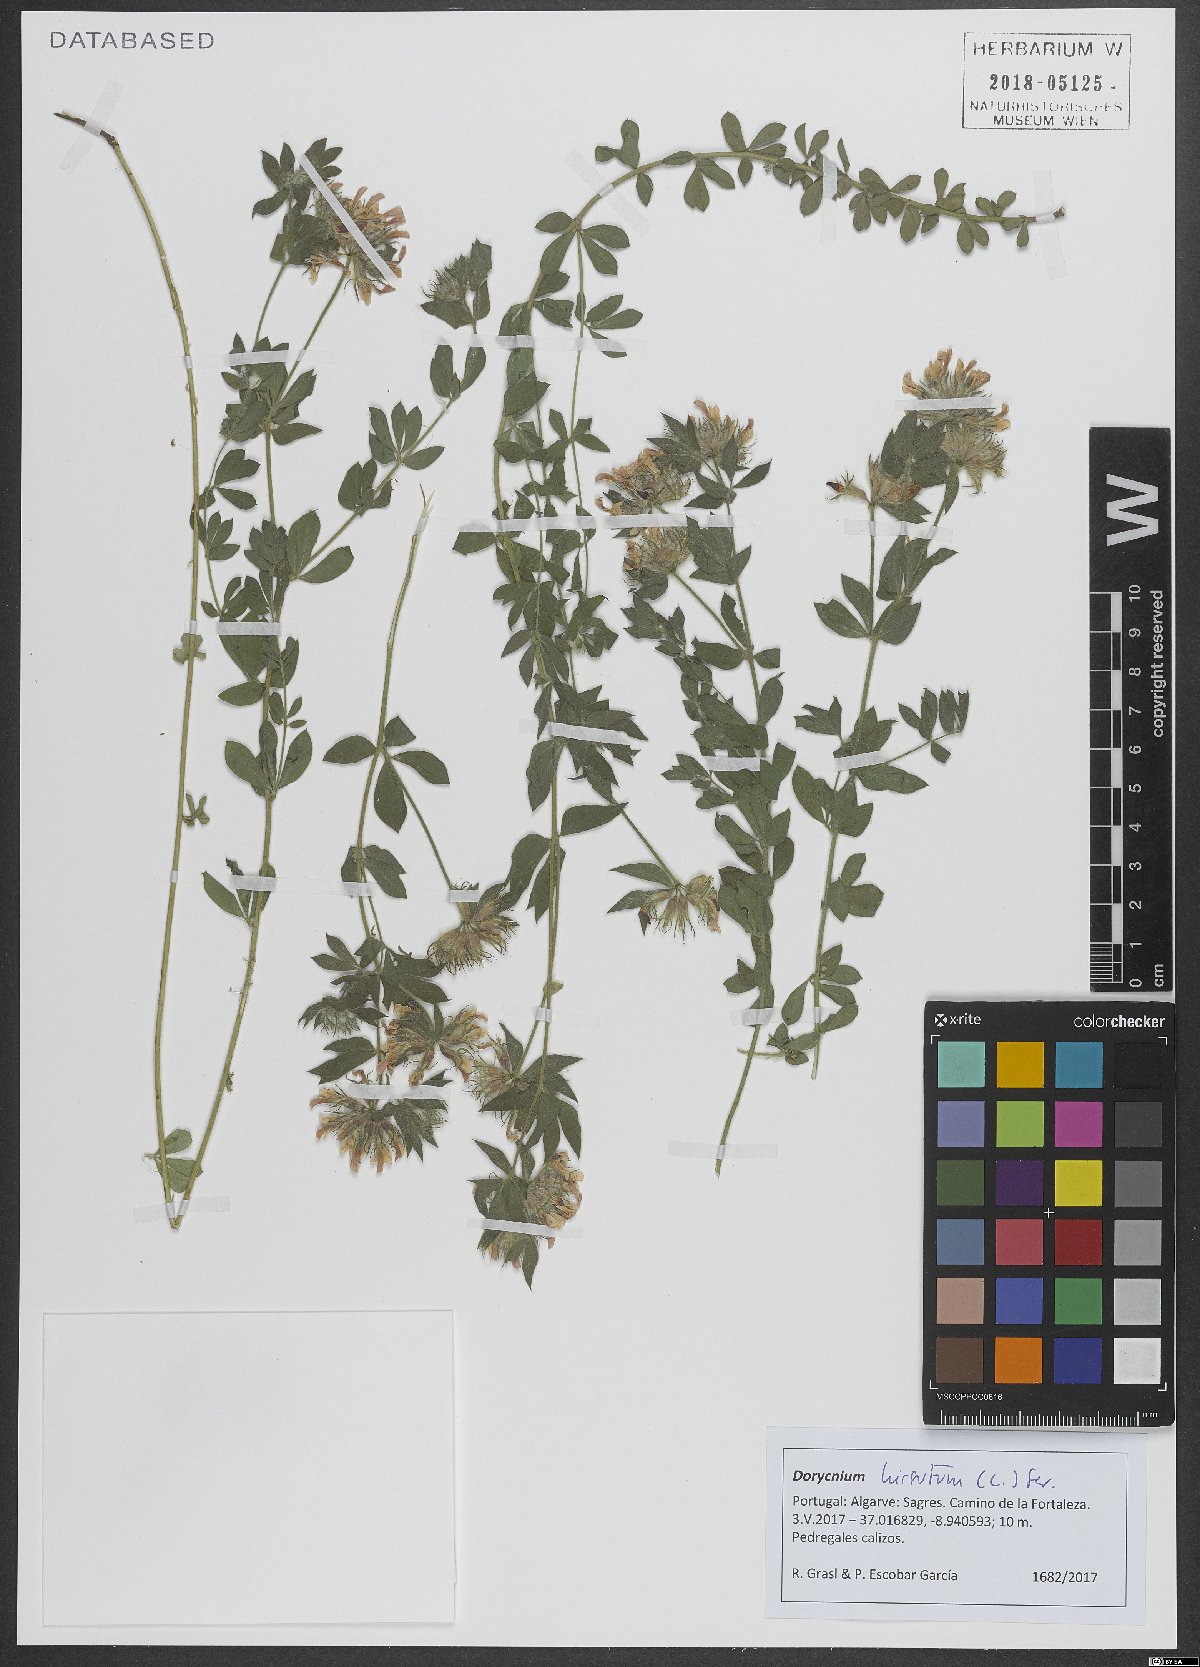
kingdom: Plantae
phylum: Tracheophyta
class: Magnoliopsida
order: Fabales
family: Fabaceae
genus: Lotus
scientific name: Lotus hirsutus
